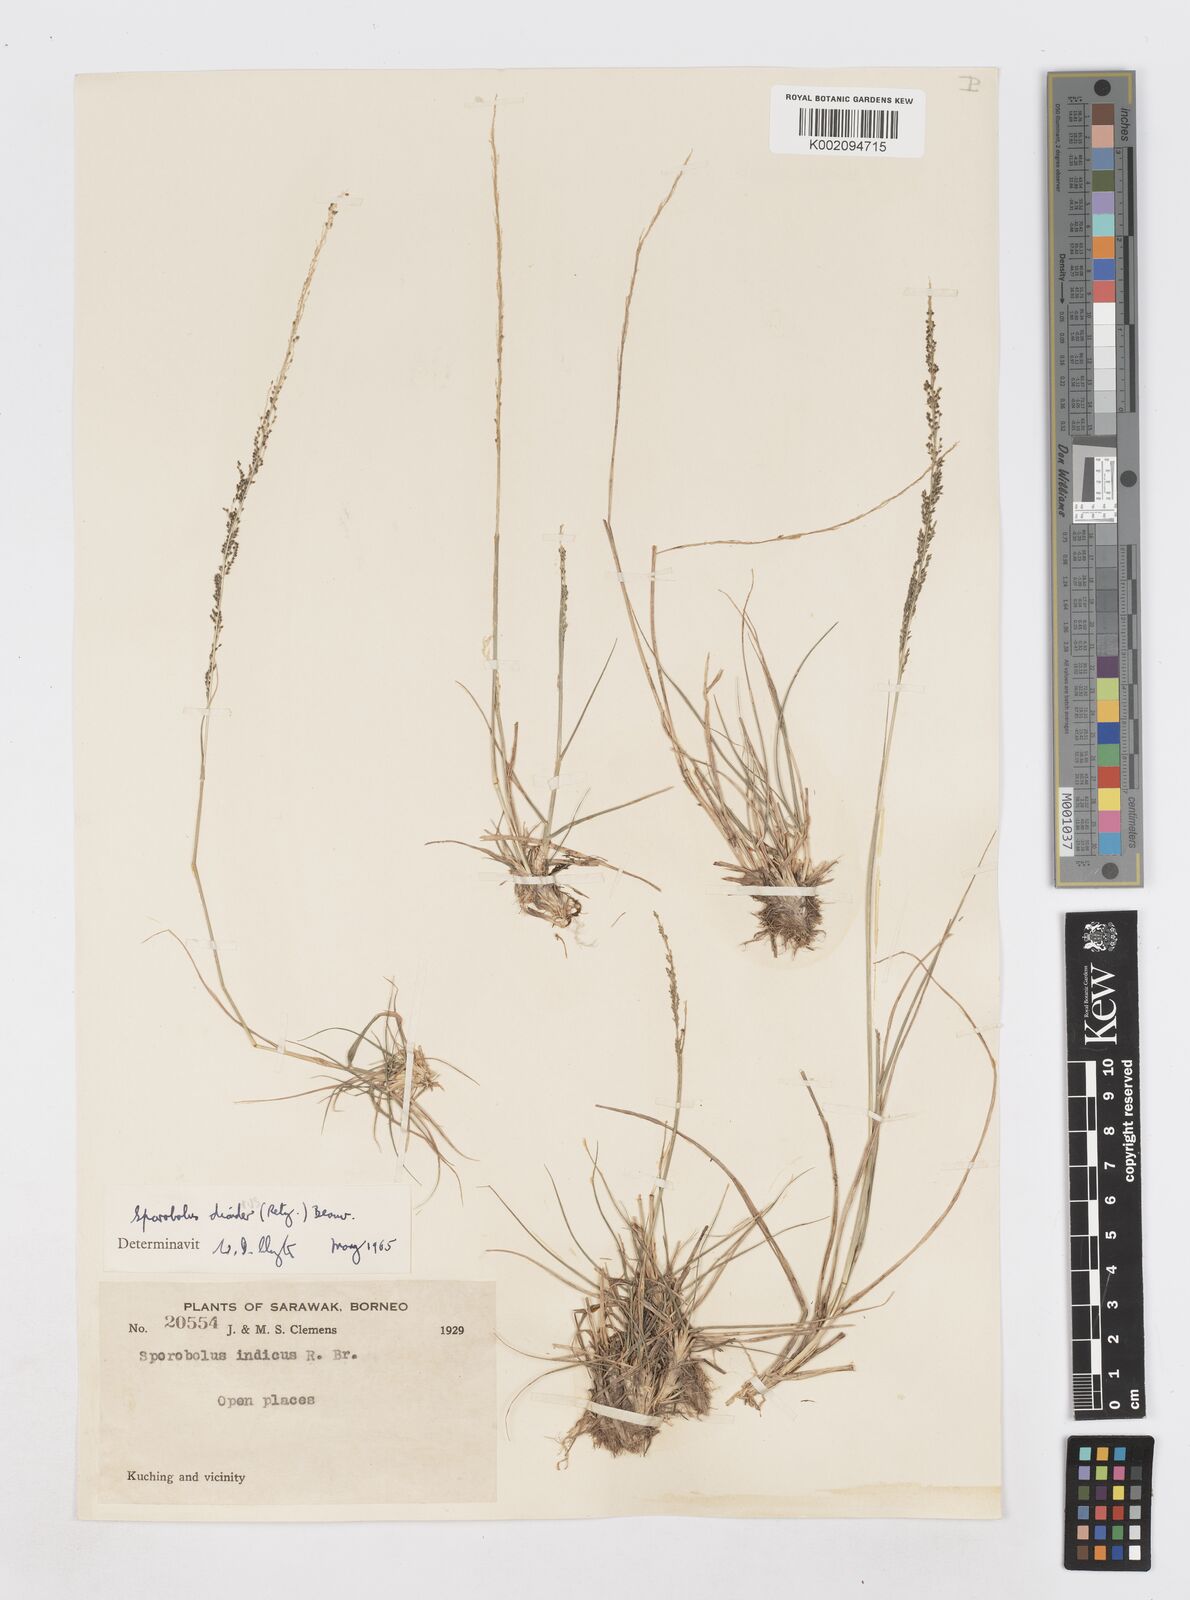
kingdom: Plantae
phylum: Tracheophyta
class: Liliopsida
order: Poales
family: Poaceae
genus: Sporobolus
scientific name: Sporobolus diandrus
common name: Tussock dropseed
